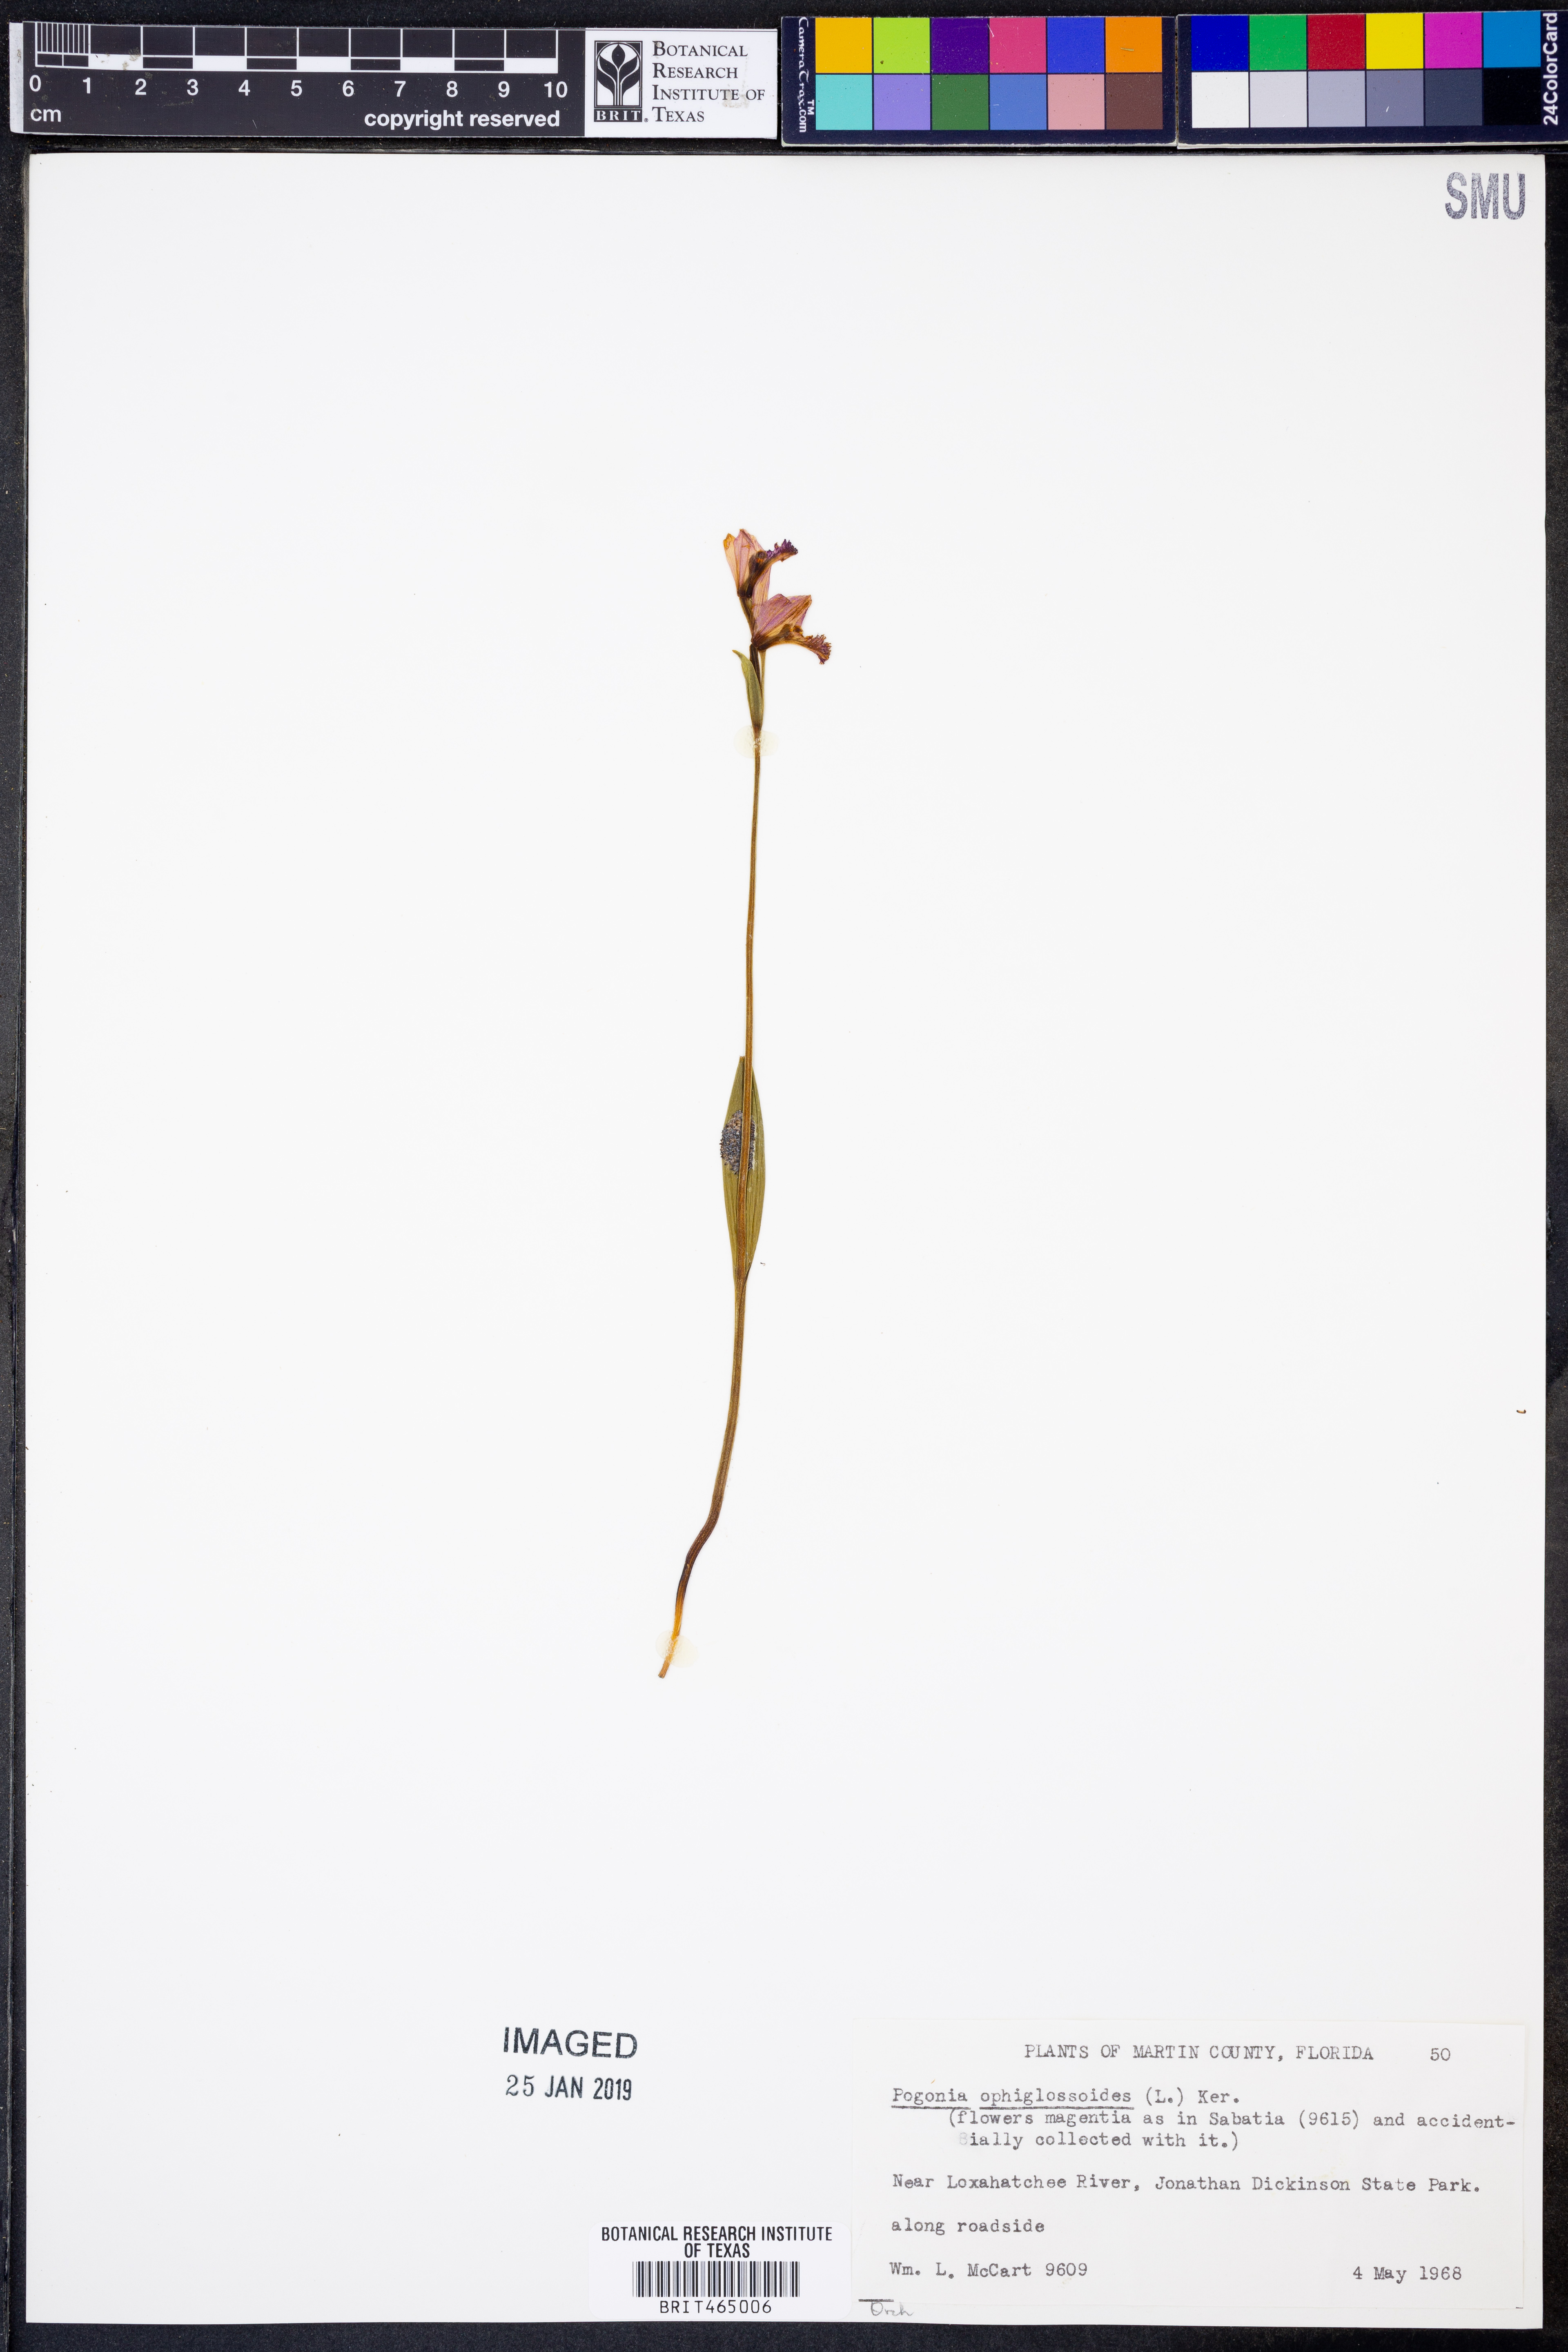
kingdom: Plantae
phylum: Tracheophyta
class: Liliopsida
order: Asparagales
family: Orchidaceae
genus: Pogonia
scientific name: Pogonia ophioglossoides
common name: Rose pogonia
